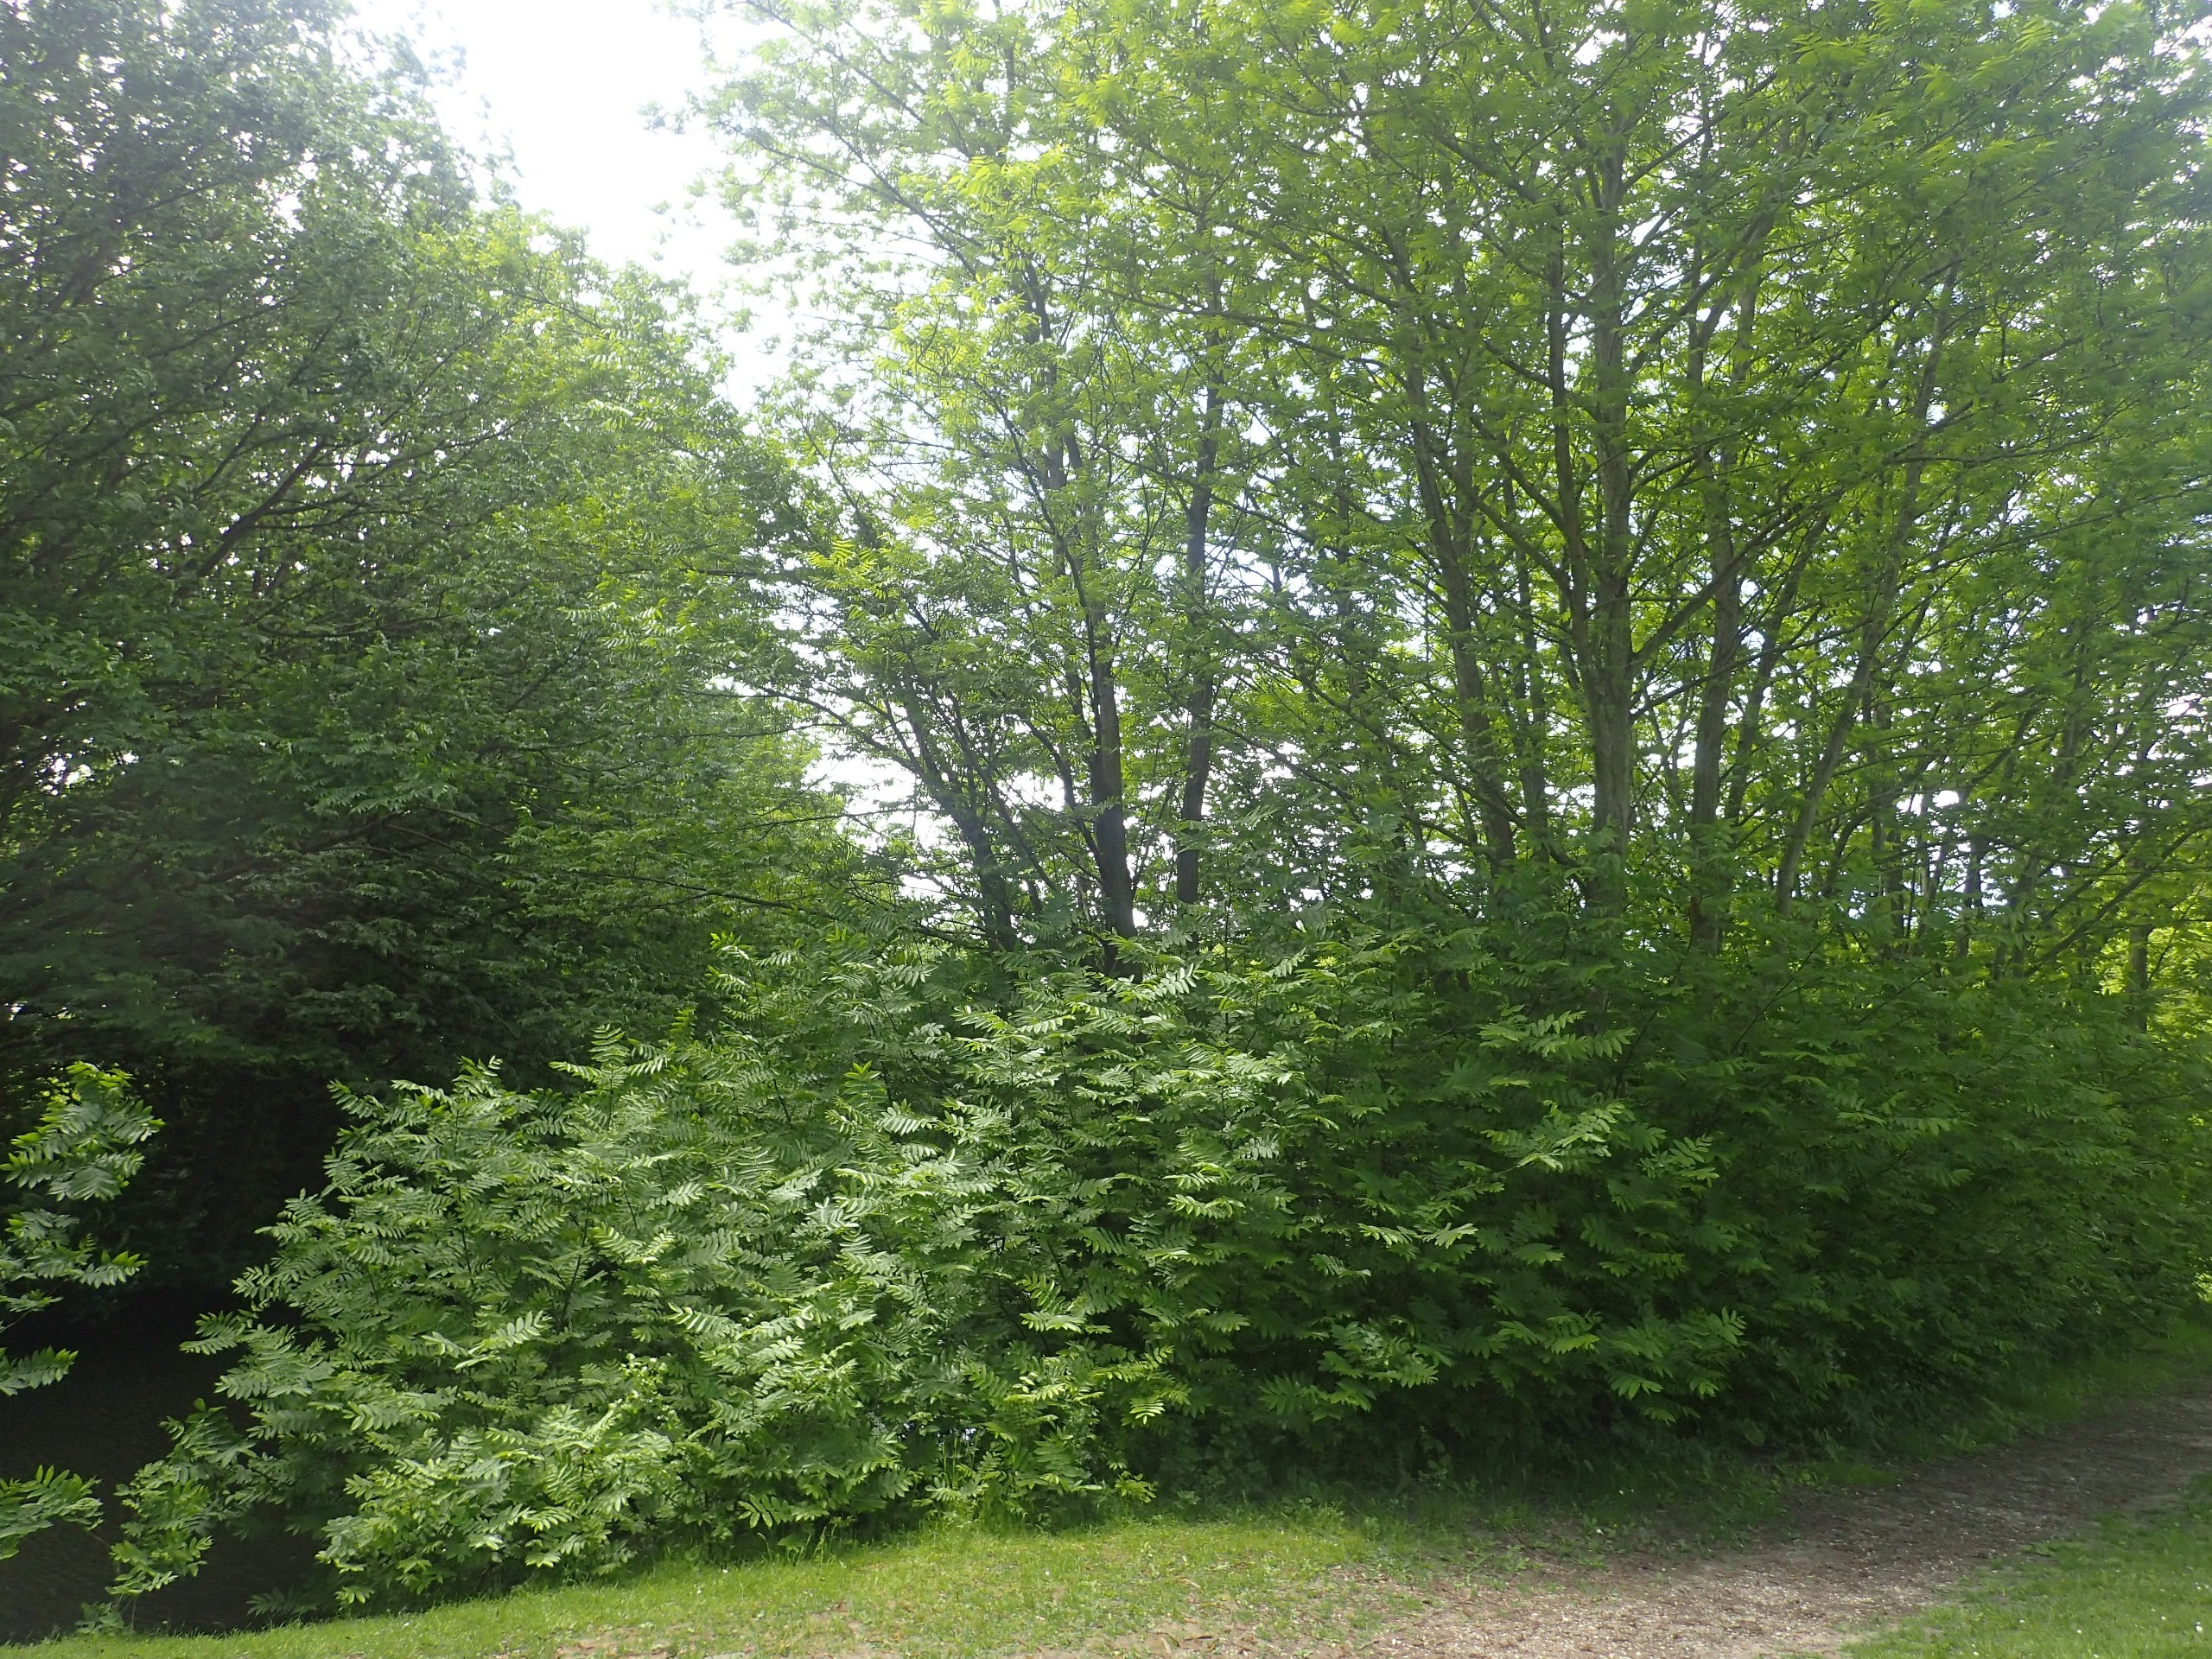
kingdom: Plantae
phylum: Tracheophyta
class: Magnoliopsida
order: Fagales
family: Juglandaceae
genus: Pterocarya
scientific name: Pterocarya fraxinifolia
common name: Kaukasisk vingevalnød
